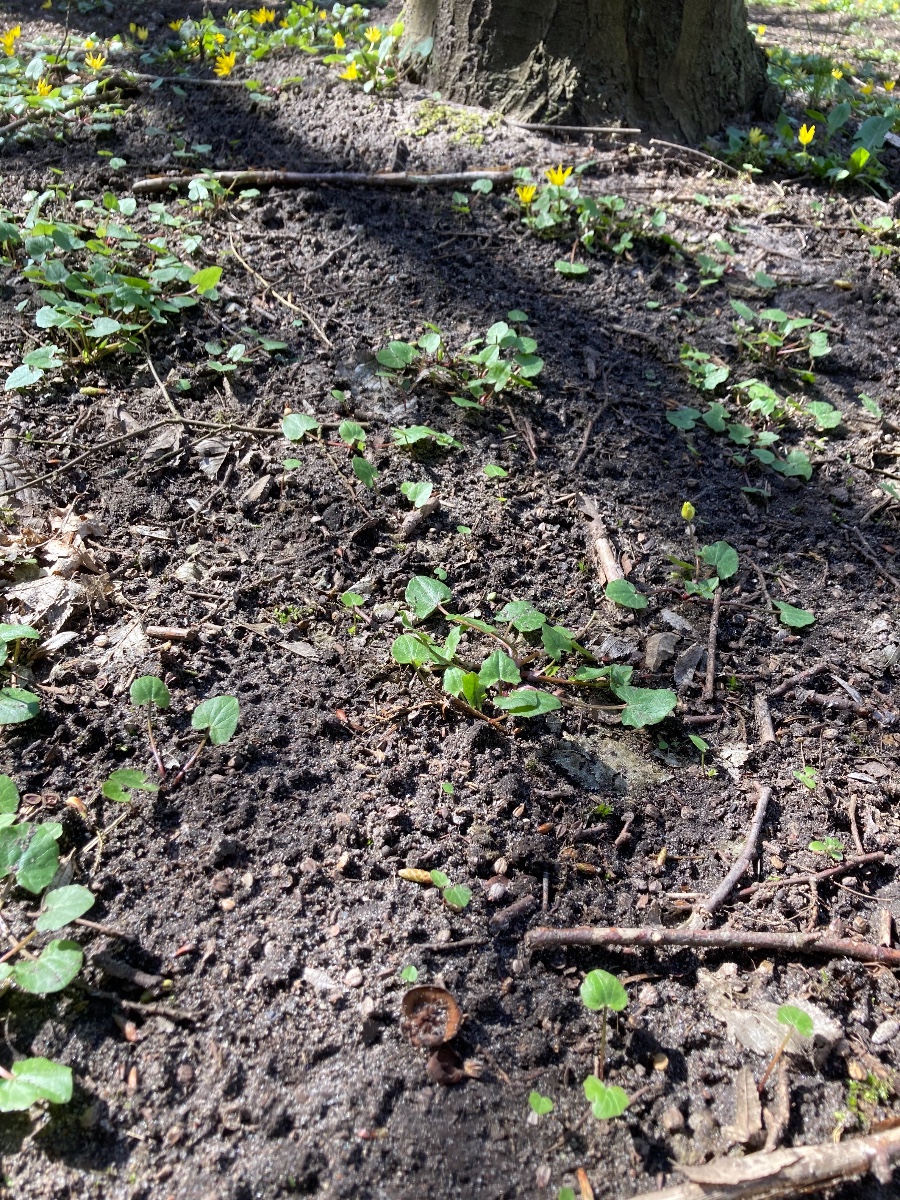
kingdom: Fungi
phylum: Ascomycota
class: Leotiomycetes
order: Helotiales
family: Sclerotiniaceae
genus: Dumontinia
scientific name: Dumontinia tuberosa
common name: anemone-knoldskive
